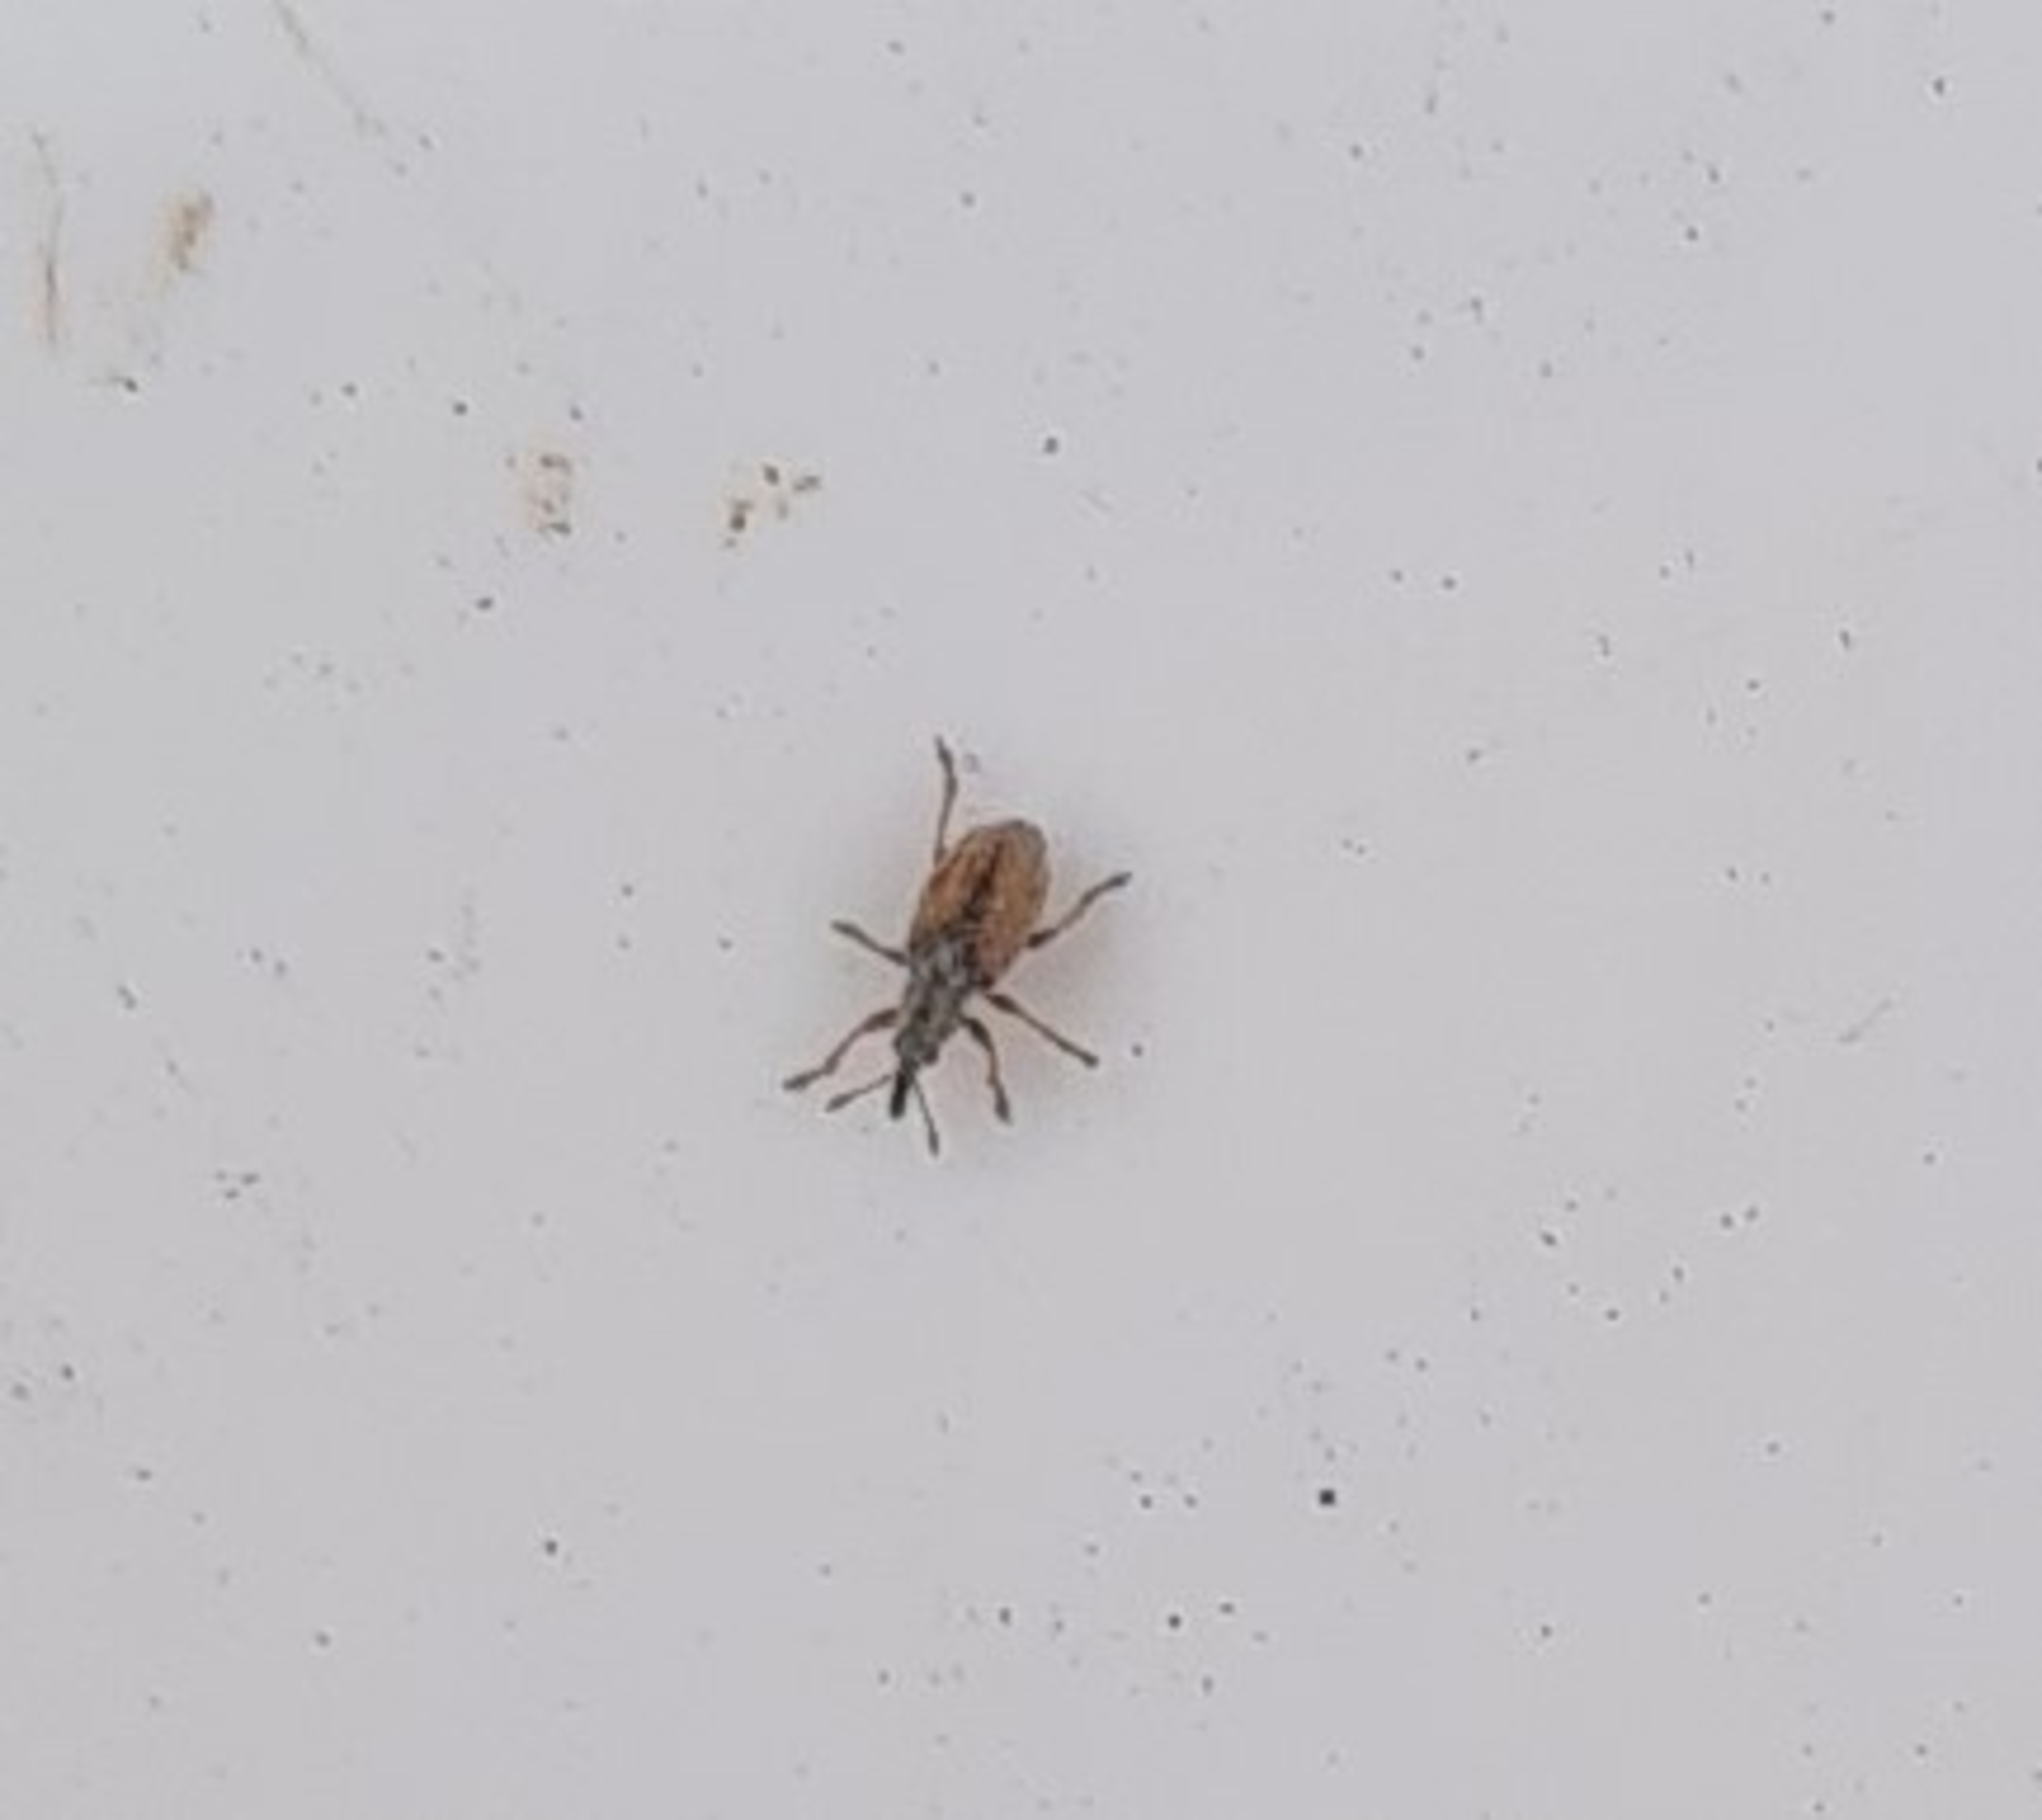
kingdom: Animalia
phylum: Arthropoda
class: Insecta
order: Coleoptera
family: Apionidae
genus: Malvapion
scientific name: Malvapion malvae
